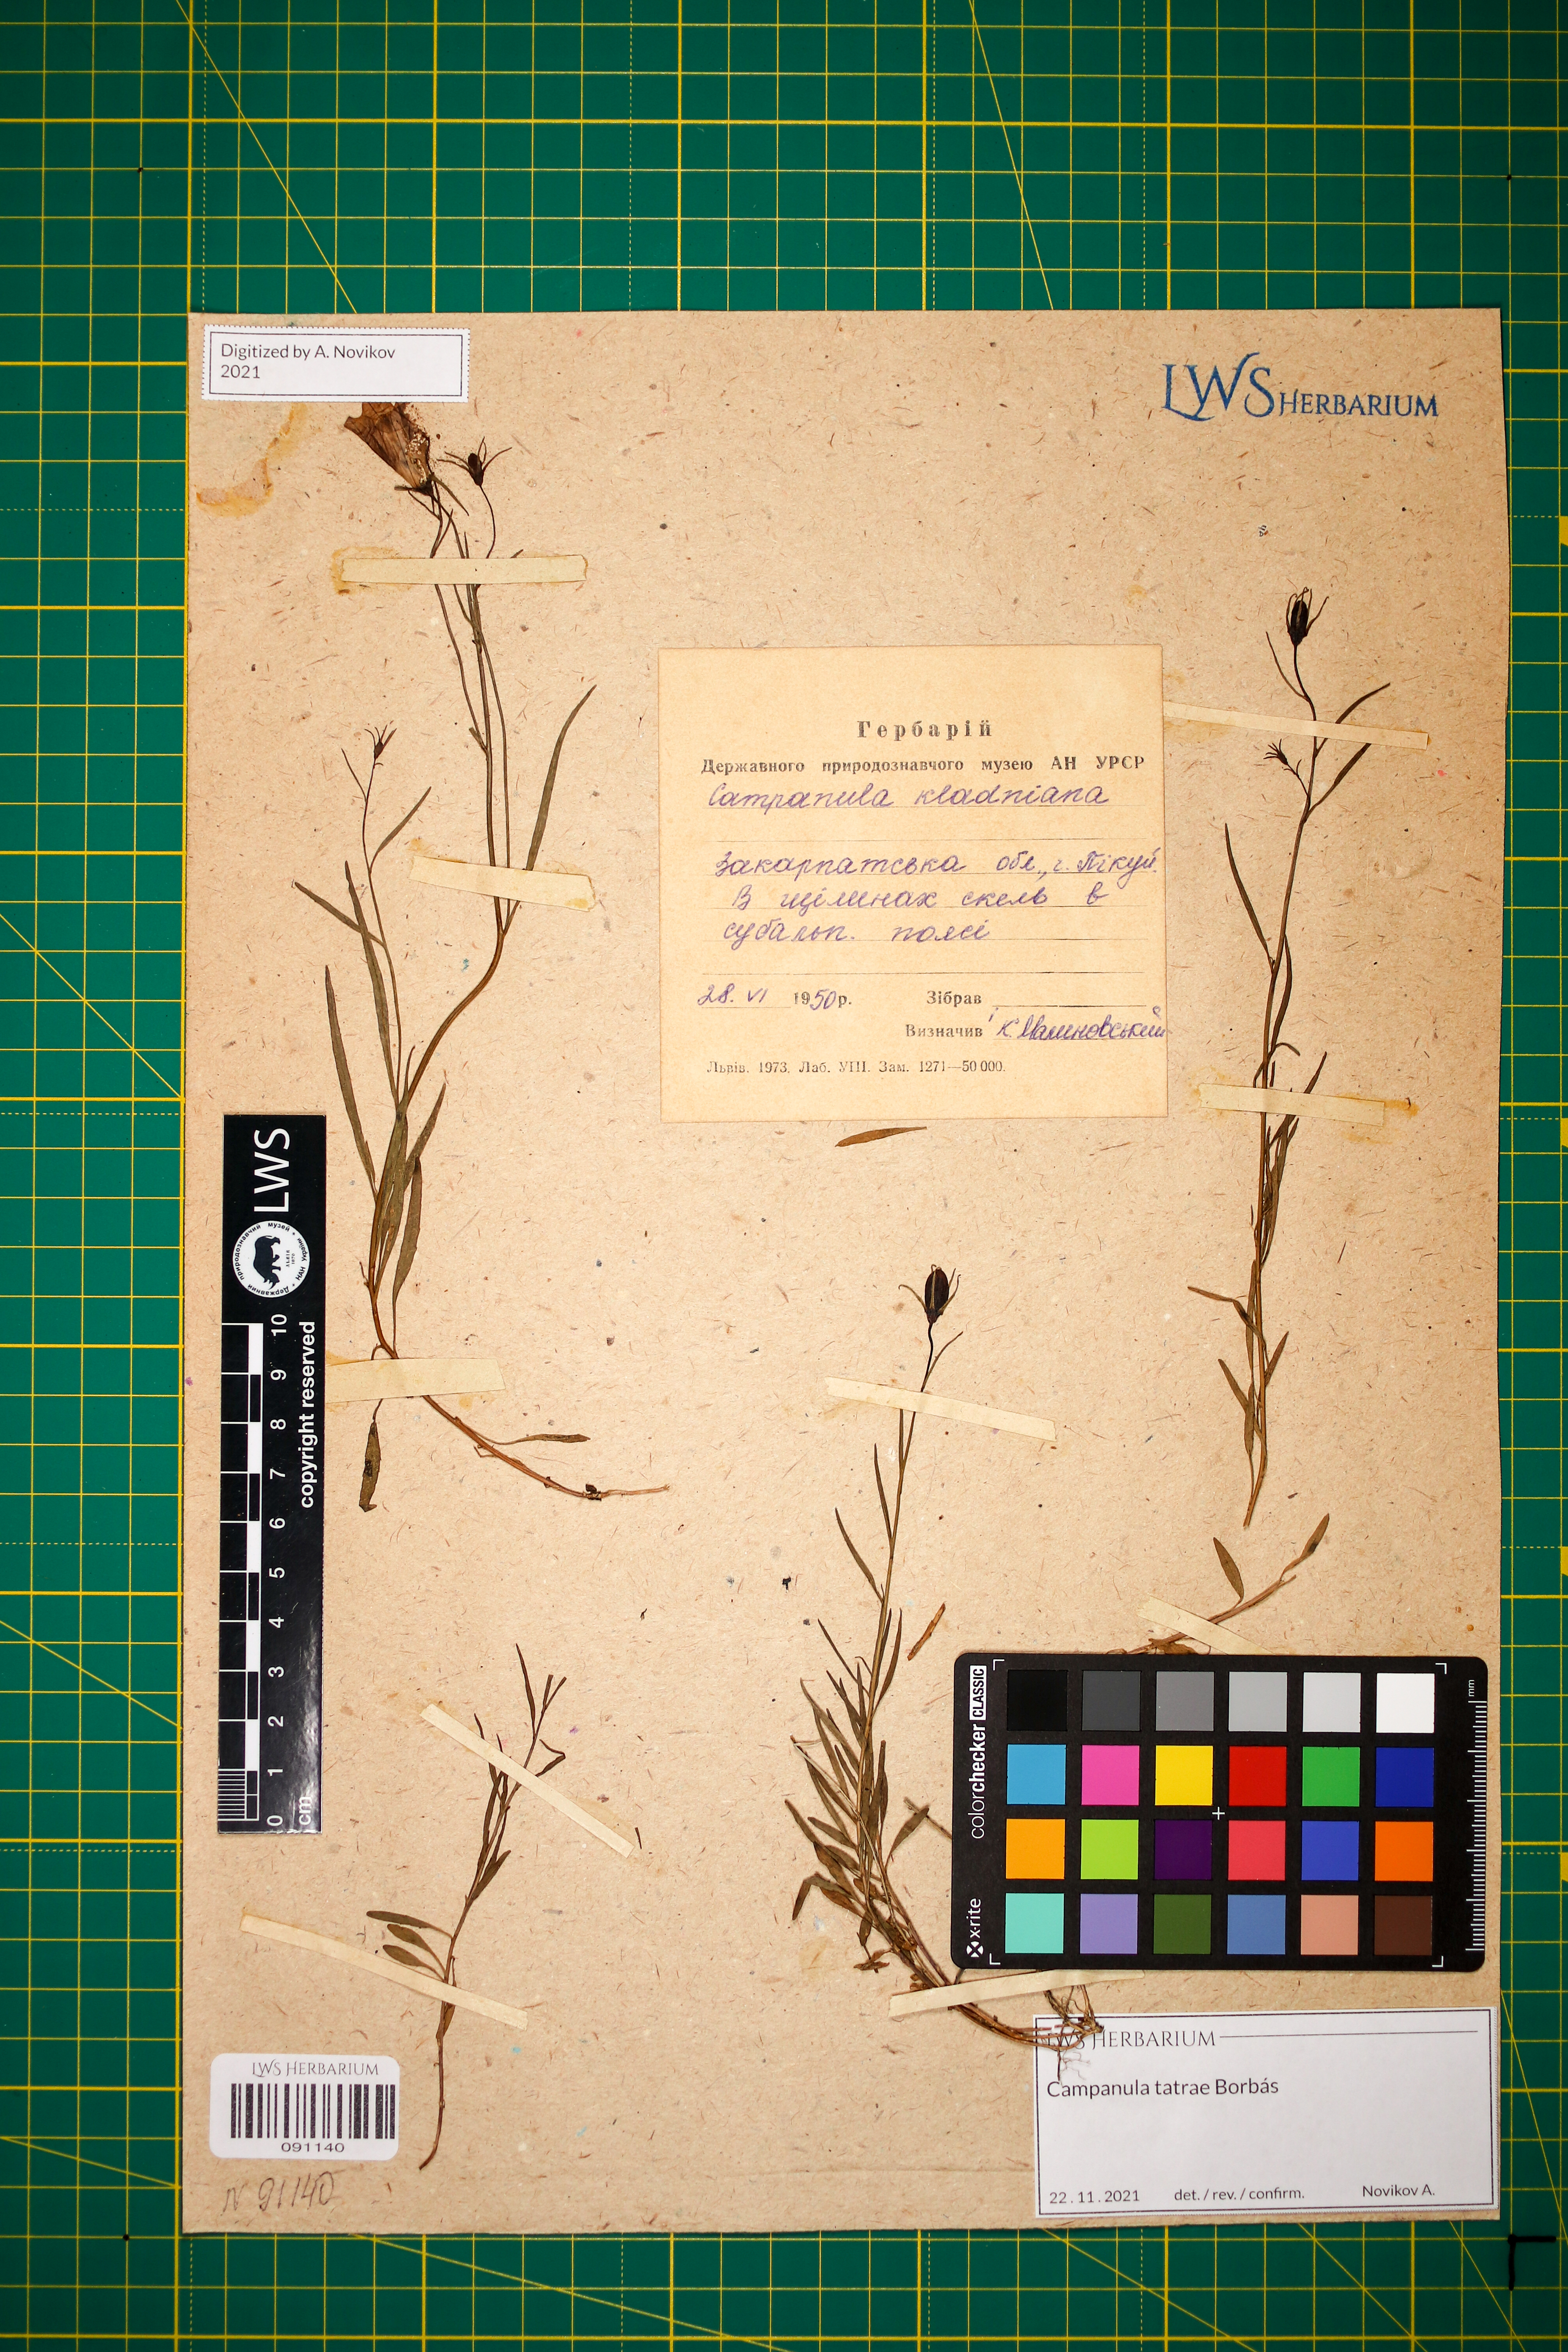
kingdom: Plantae
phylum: Tracheophyta
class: Magnoliopsida
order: Asterales
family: Campanulaceae
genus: Campanula
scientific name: Campanula kladniana
